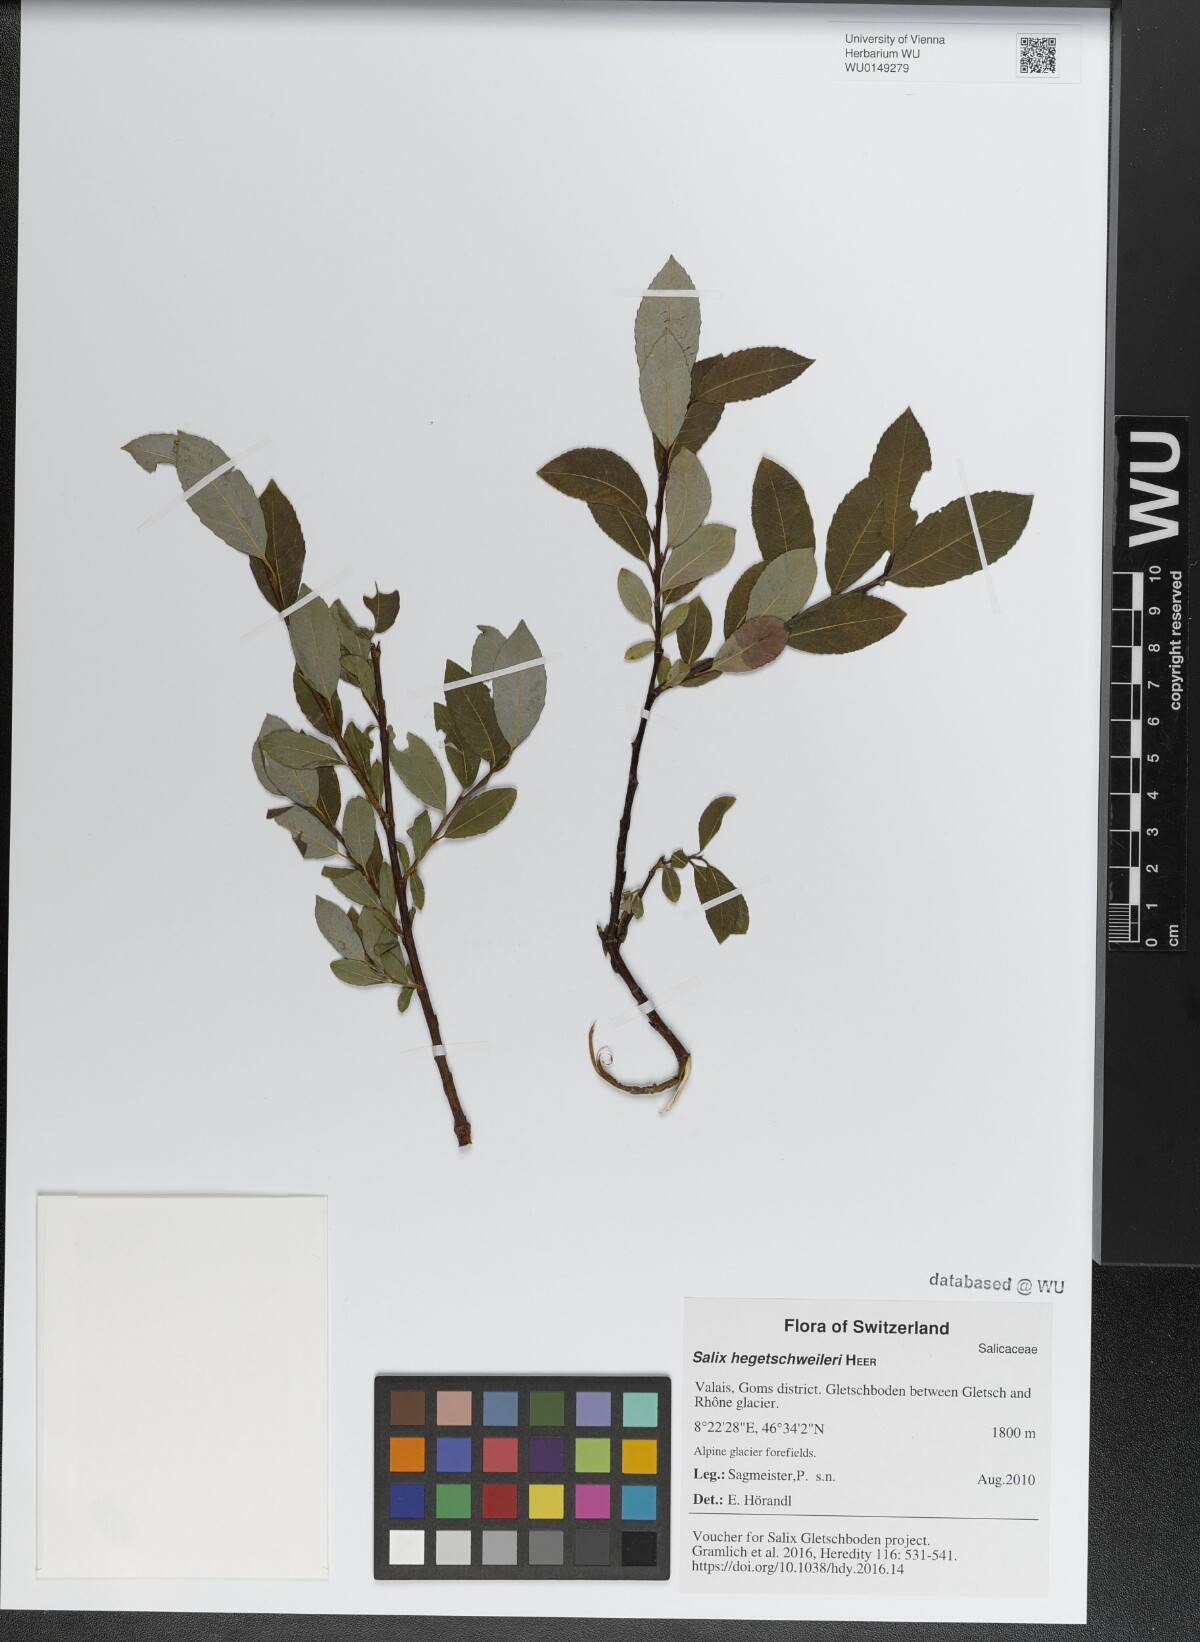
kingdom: Plantae
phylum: Tracheophyta
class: Magnoliopsida
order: Malpighiales
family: Salicaceae
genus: Salix
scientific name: Salix hegetschweileri
